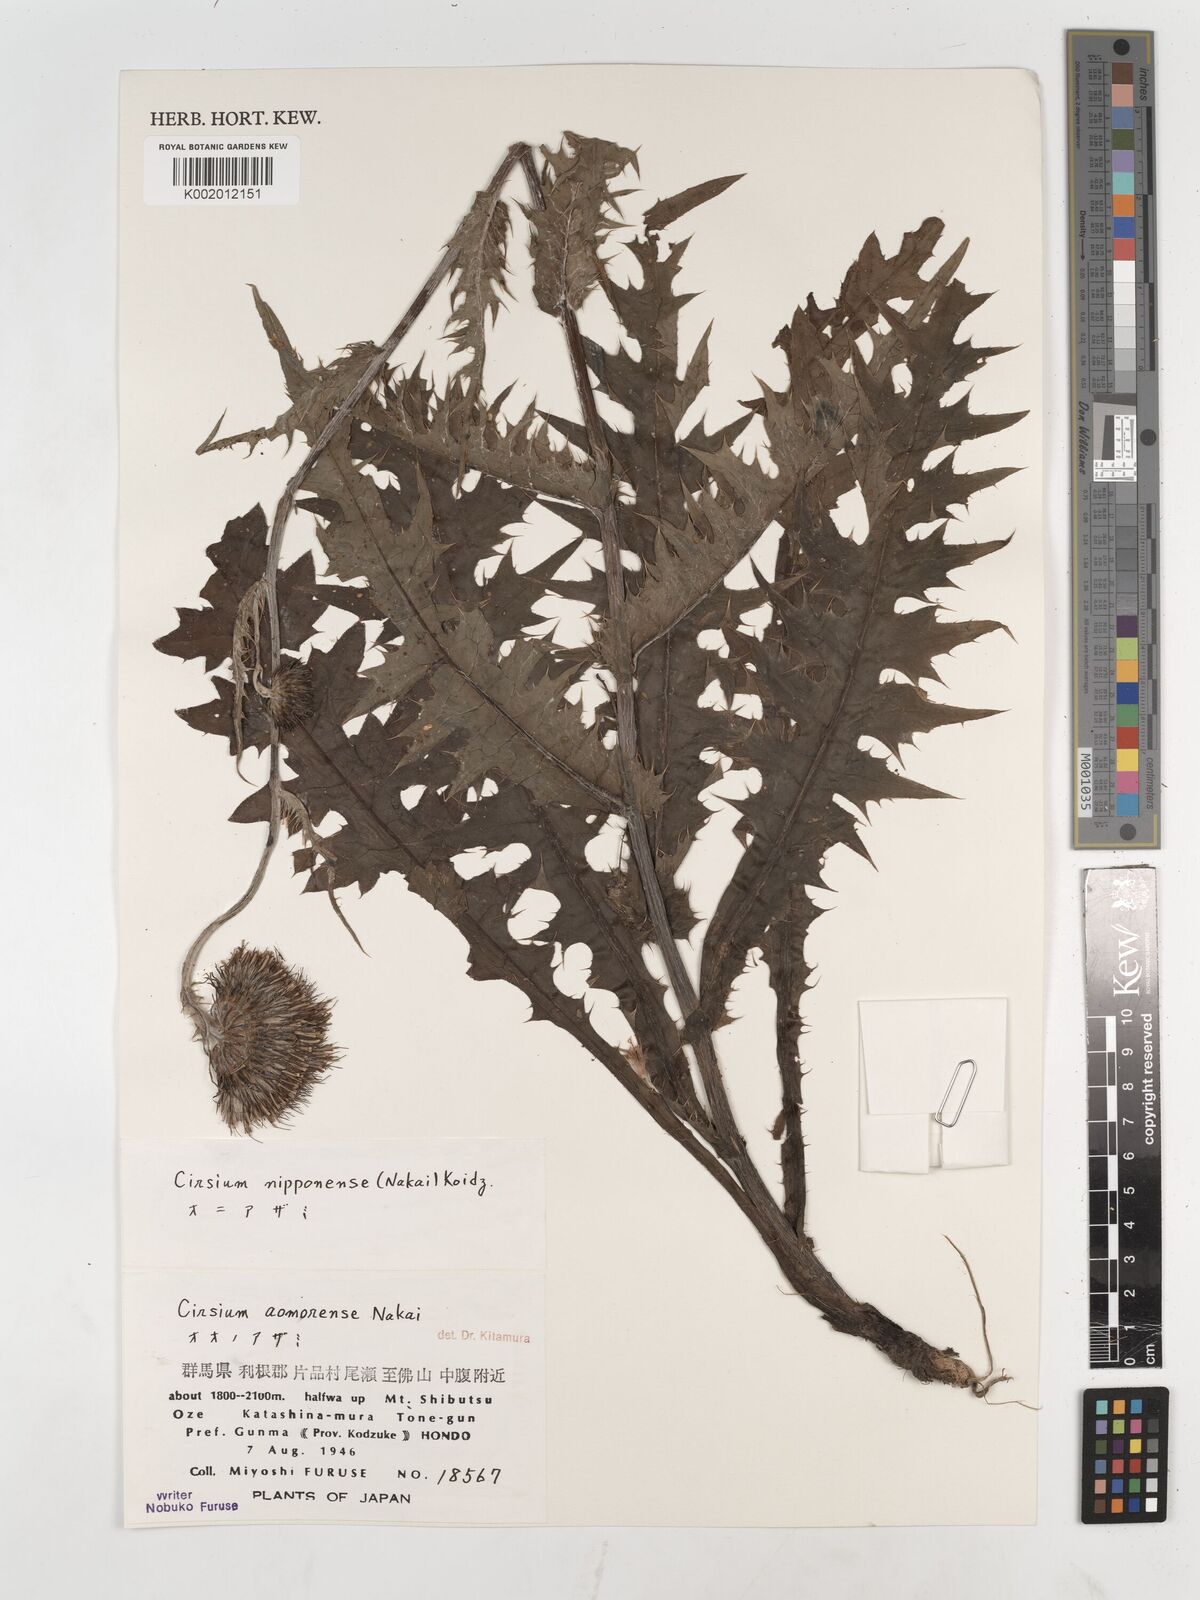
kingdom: Plantae
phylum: Tracheophyta
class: Magnoliopsida
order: Asterales
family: Asteraceae
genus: Cirsium
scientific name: Cirsium borealinipponense
